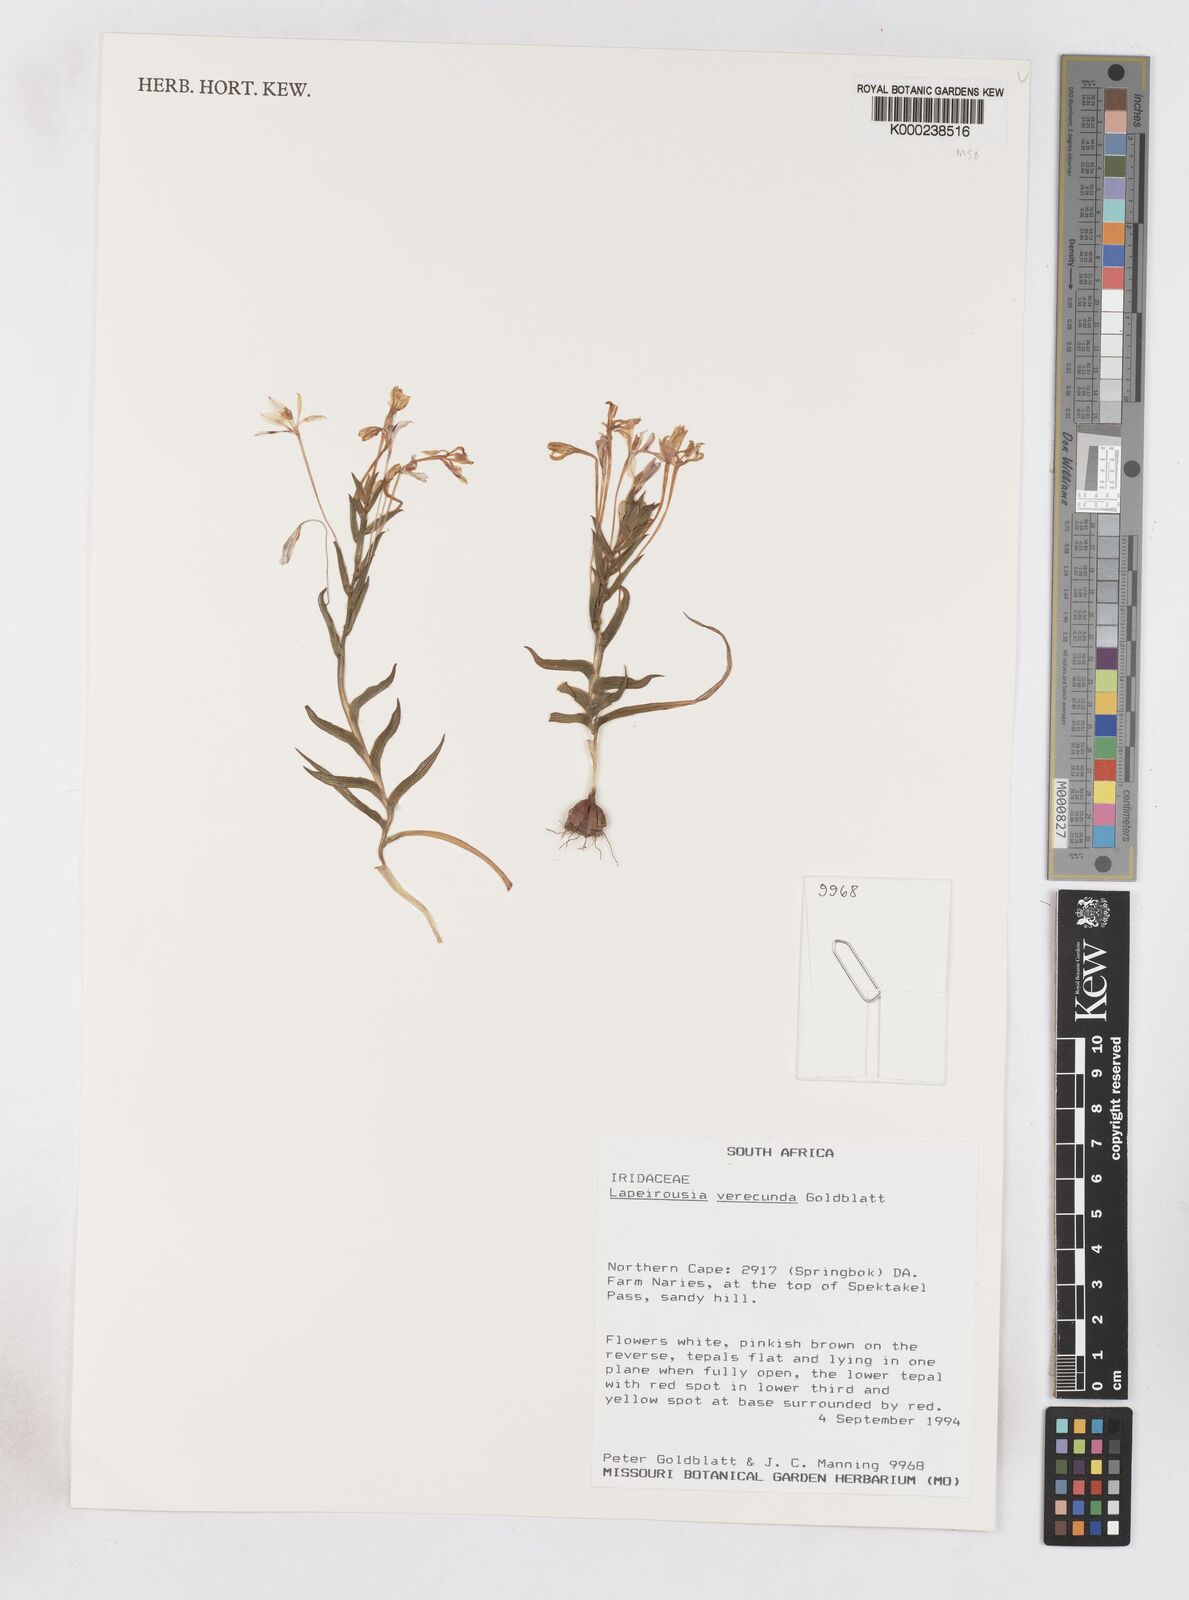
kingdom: Plantae
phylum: Tracheophyta
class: Liliopsida
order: Asparagales
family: Iridaceae
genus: Lapeirousia
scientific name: Lapeirousia verecunda
